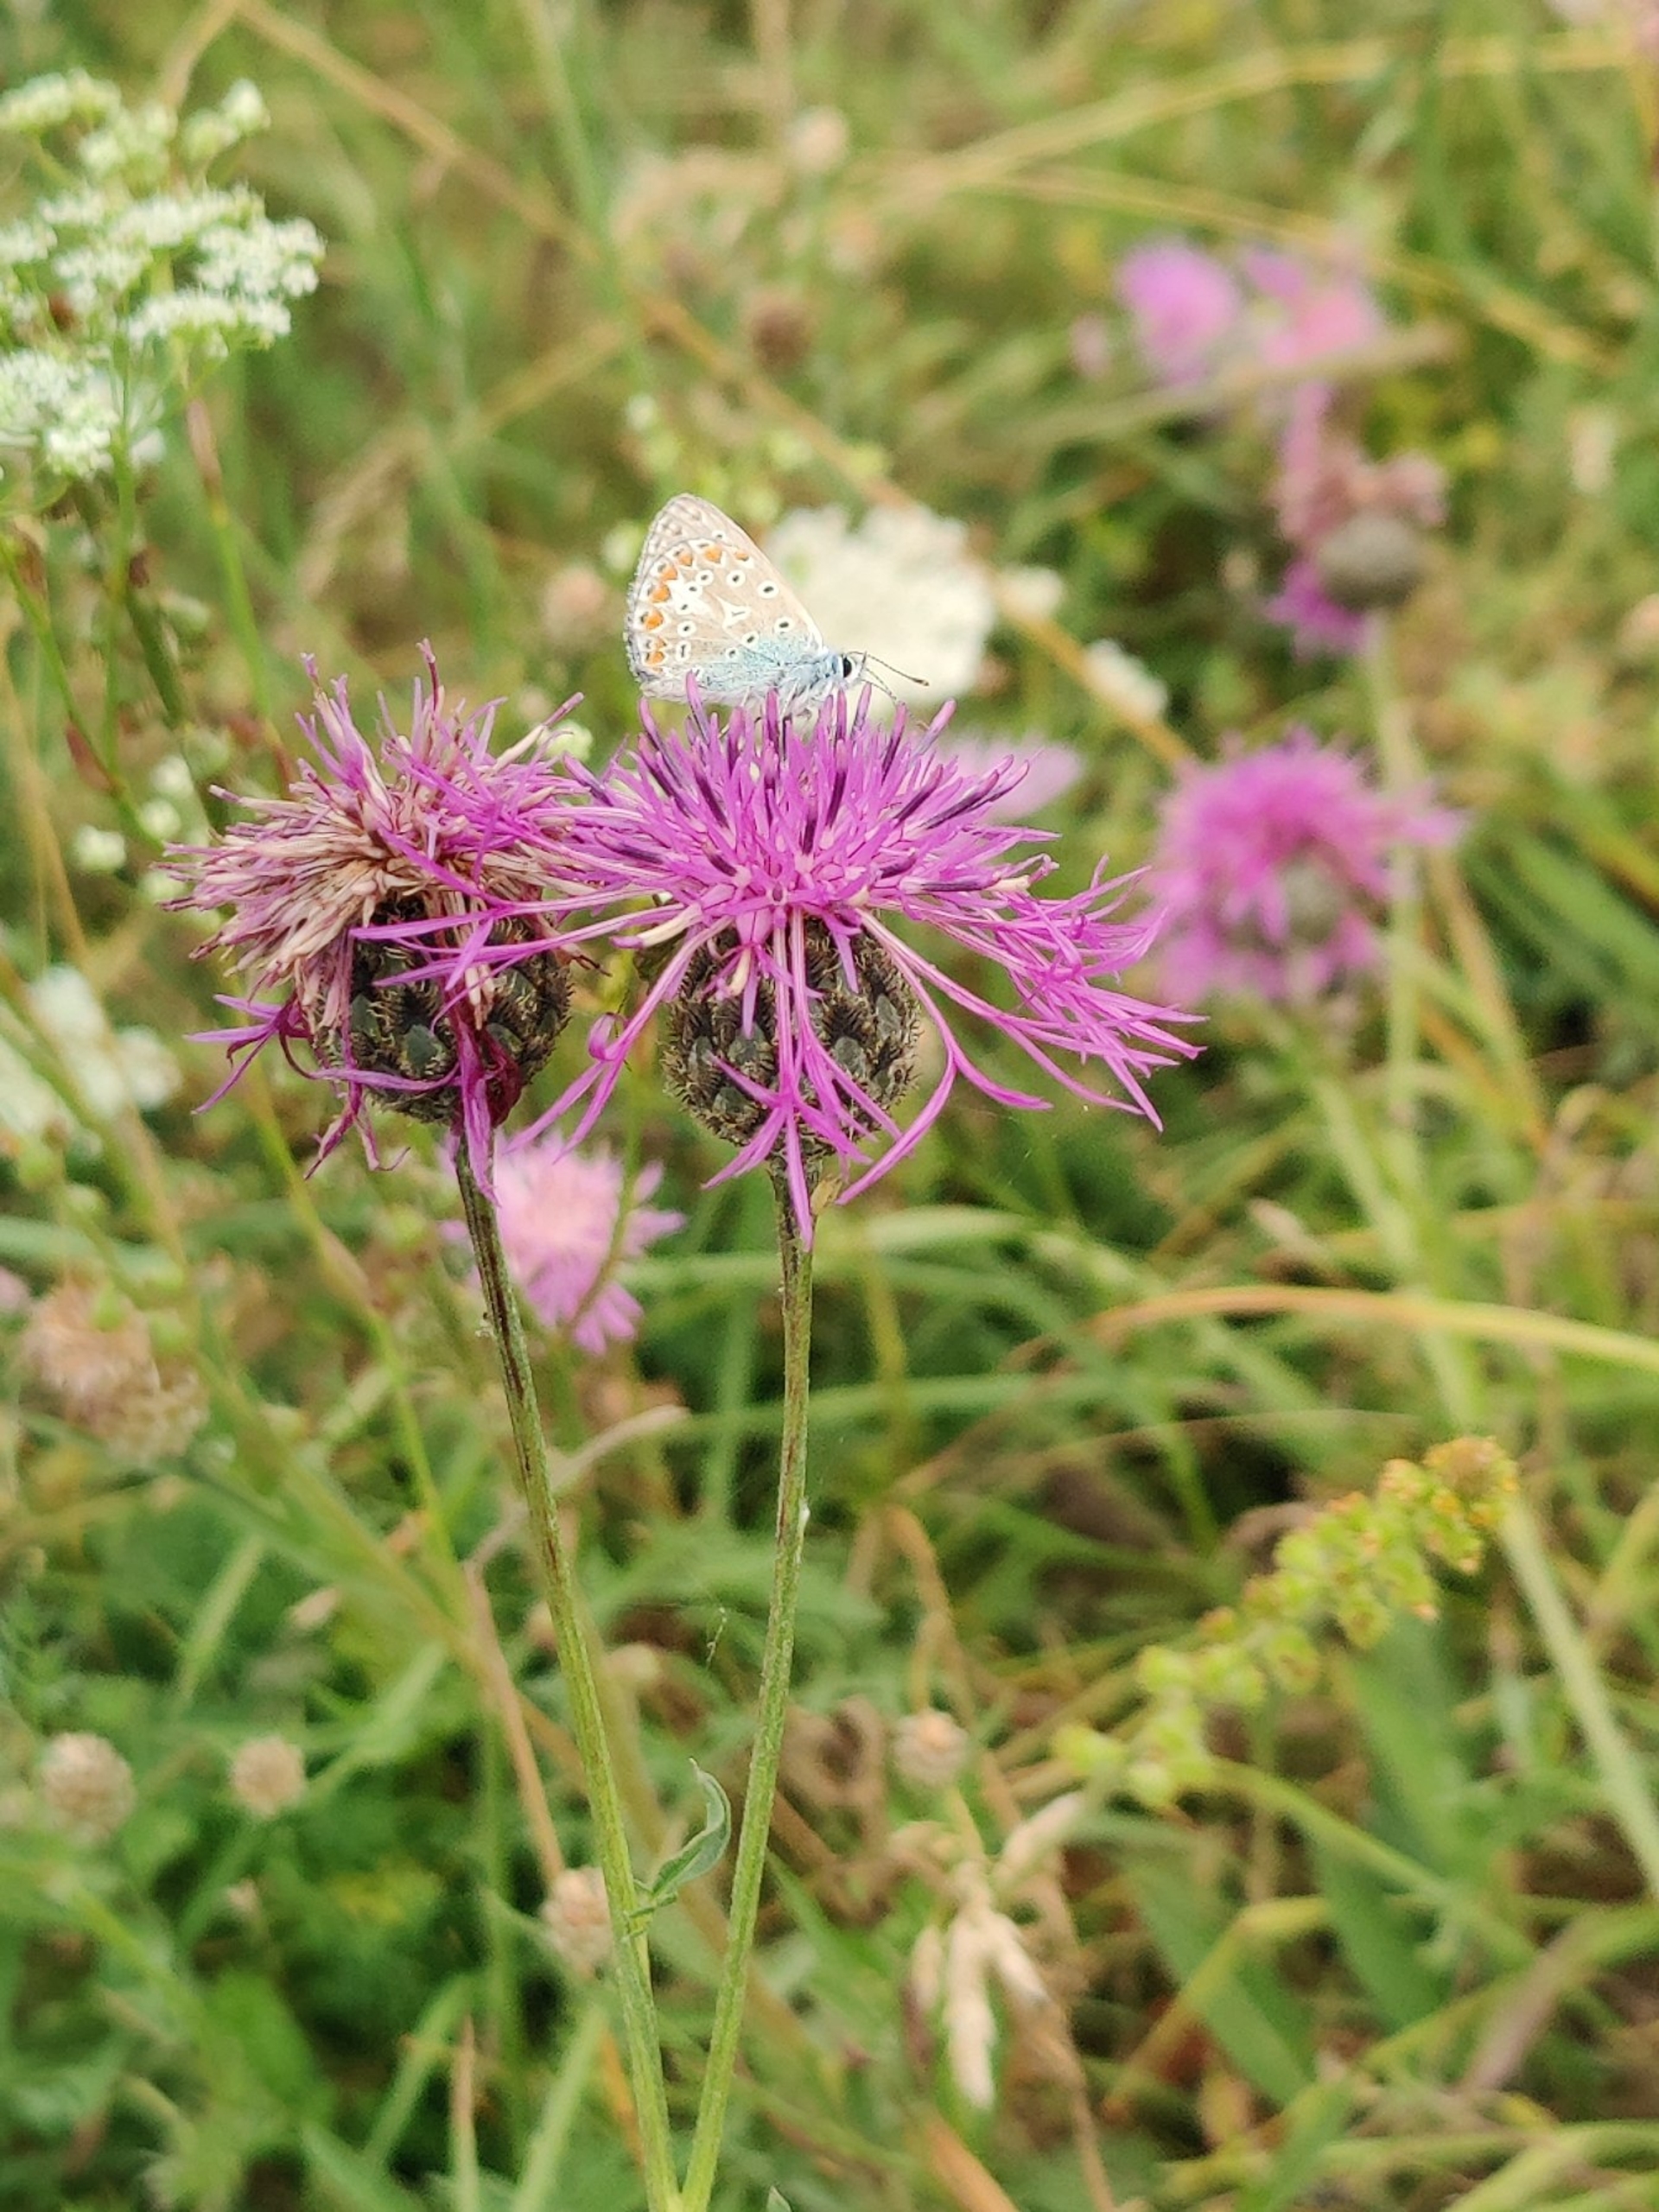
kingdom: Animalia
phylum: Arthropoda
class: Insecta
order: Lepidoptera
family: Lycaenidae
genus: Polyommatus
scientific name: Polyommatus icarus
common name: Almindelig blåfugl
